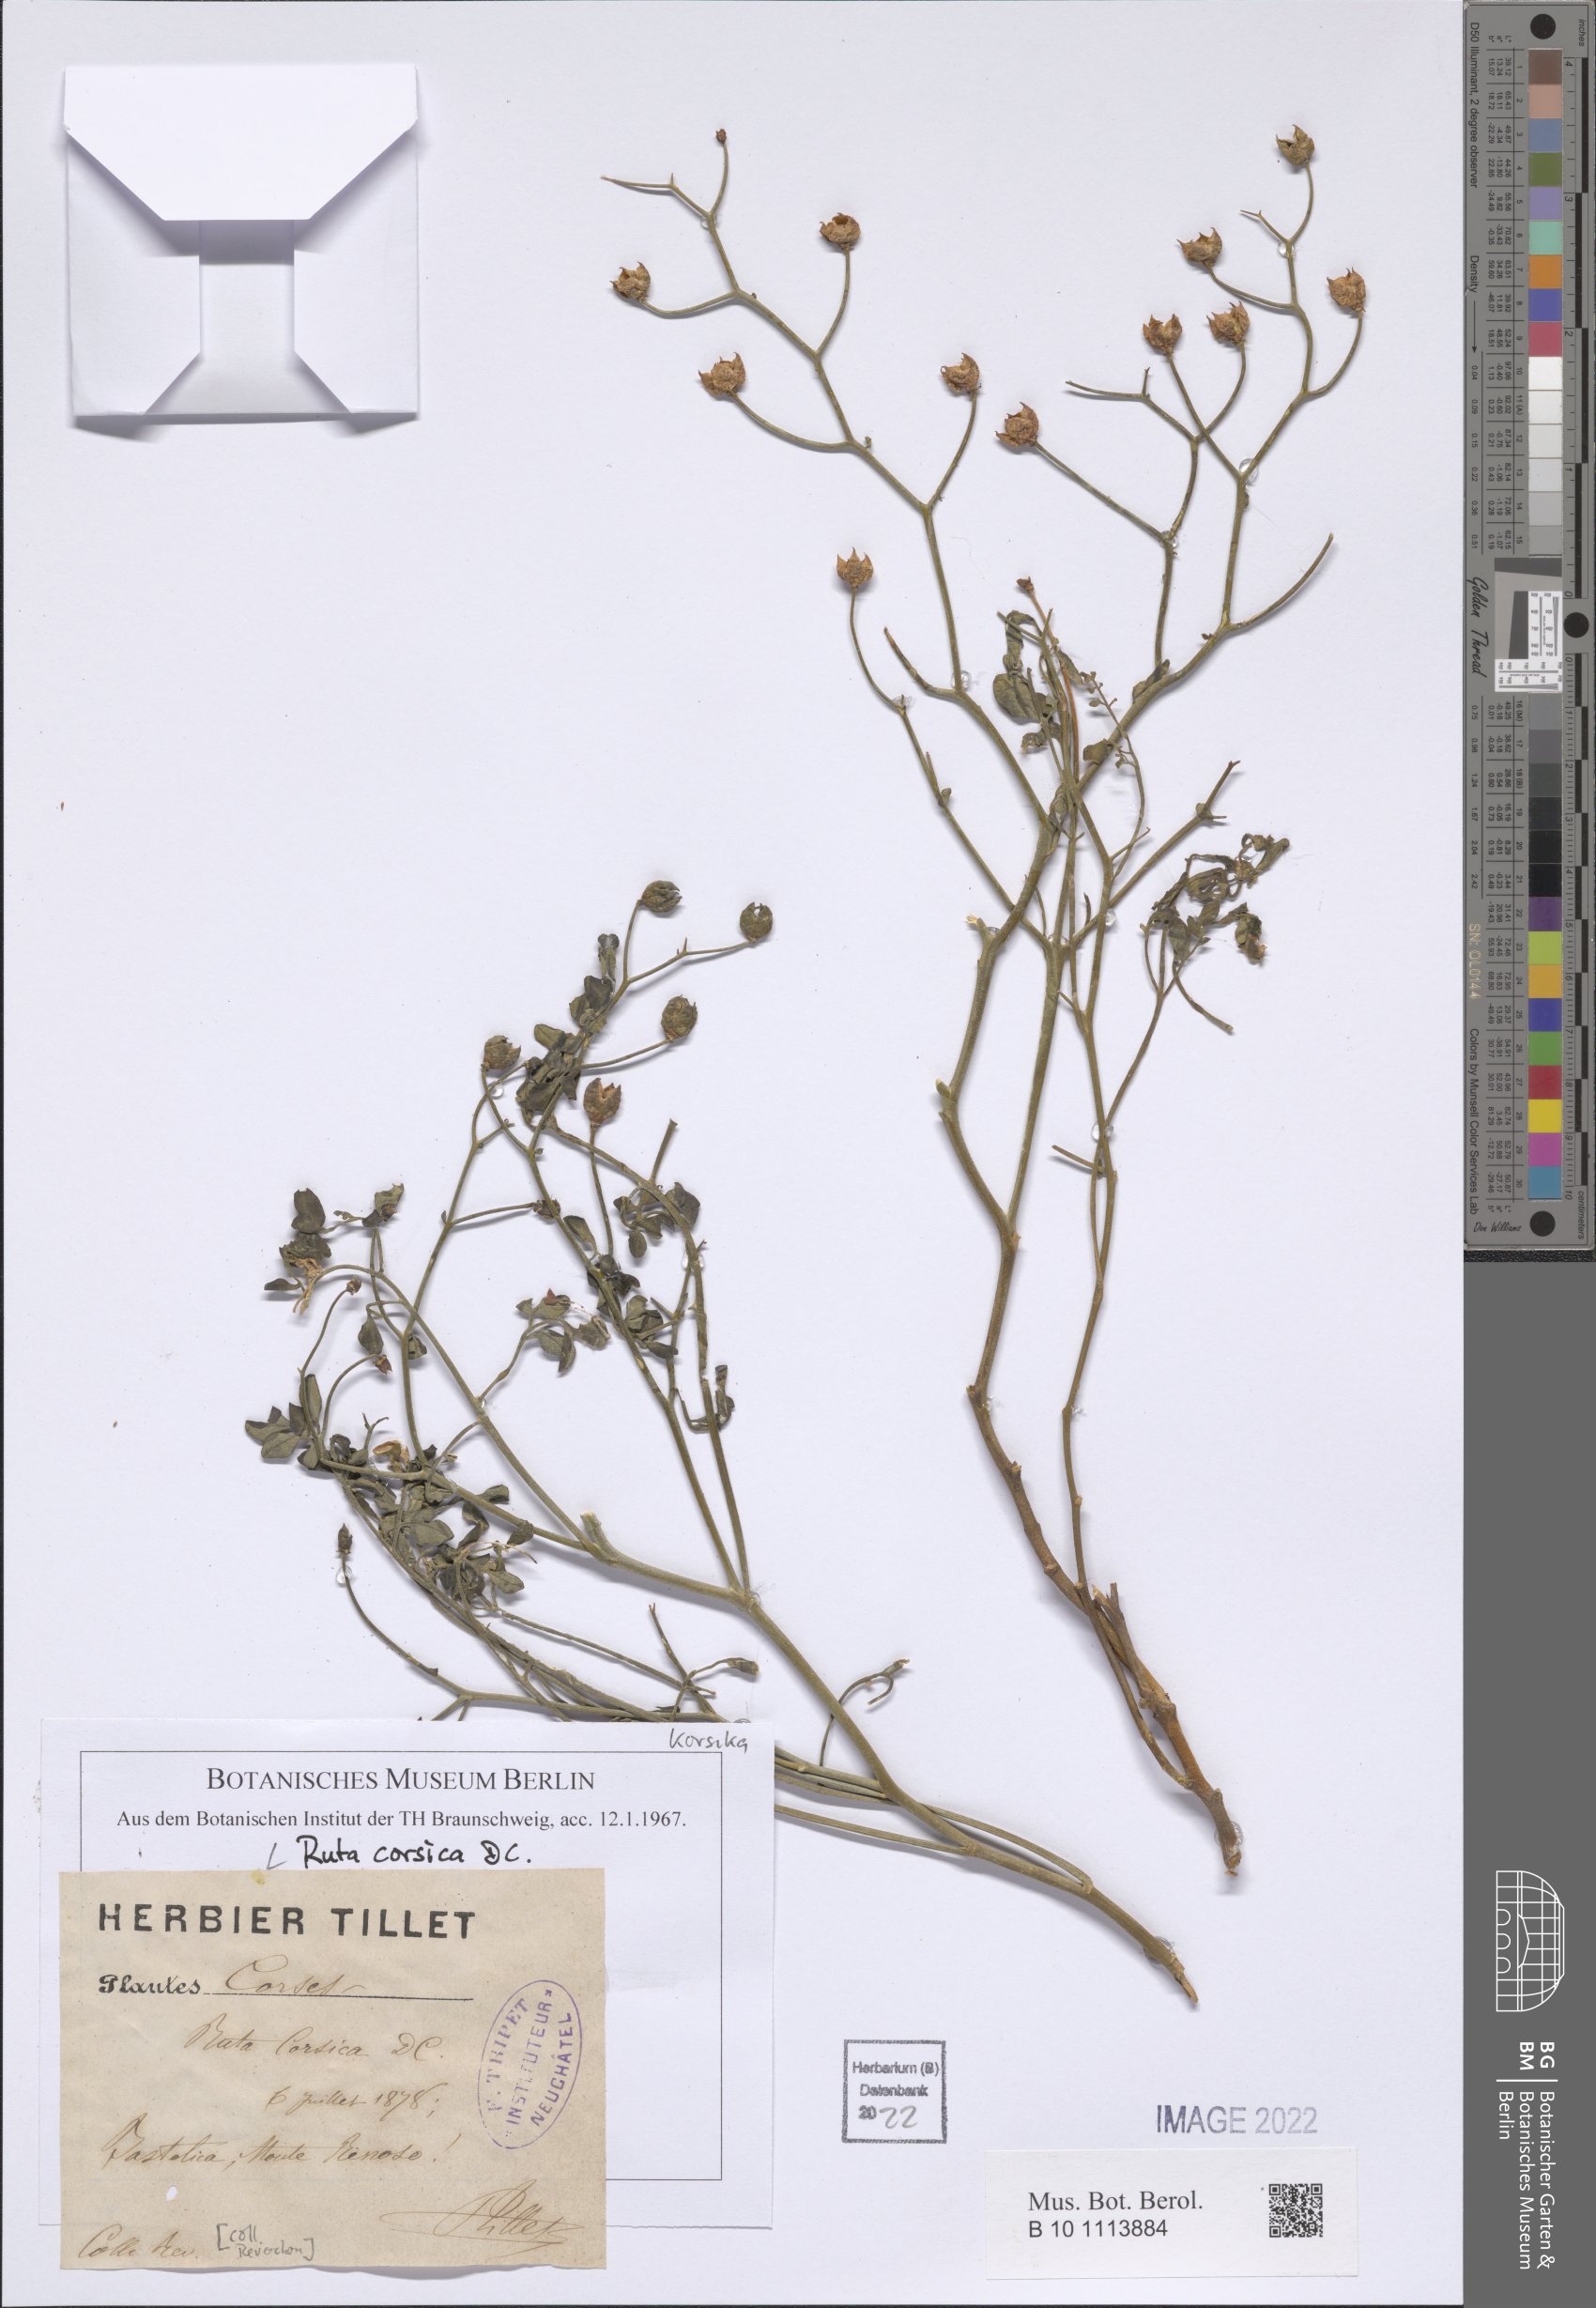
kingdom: Plantae
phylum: Tracheophyta
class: Magnoliopsida
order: Sapindales
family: Rutaceae
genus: Ruta
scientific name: Ruta corsica
